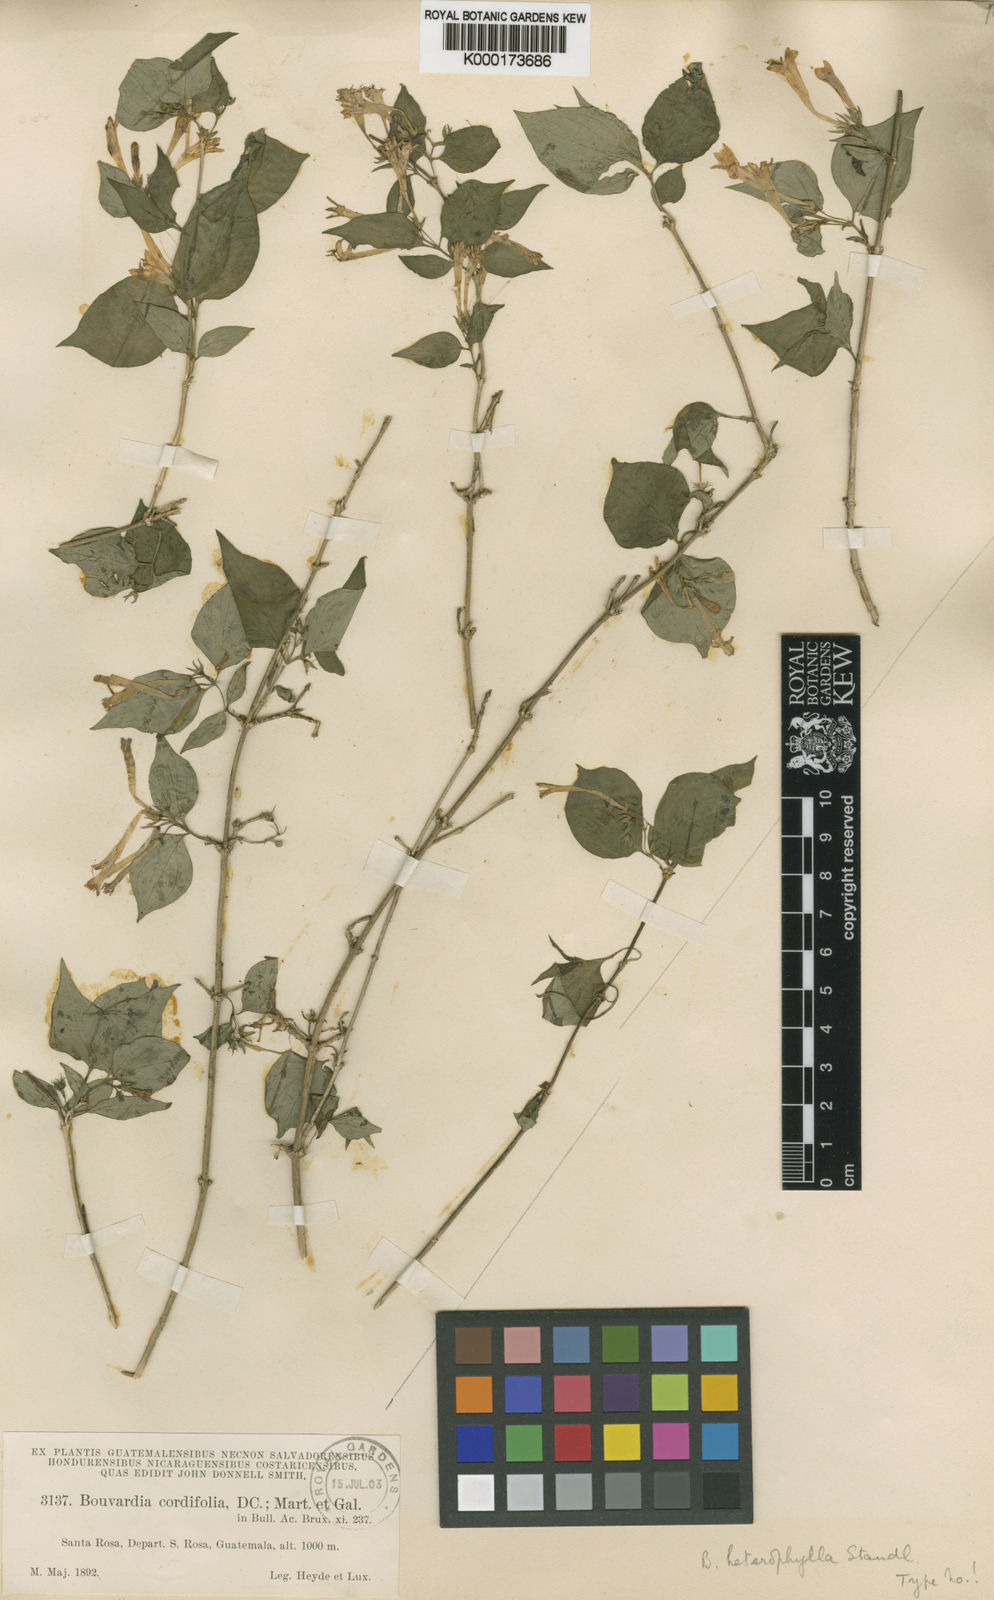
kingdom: Plantae
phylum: Tracheophyta
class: Magnoliopsida
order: Gentianales
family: Rubiaceae
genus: Bouvardia
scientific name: Bouvardia cordifolia
